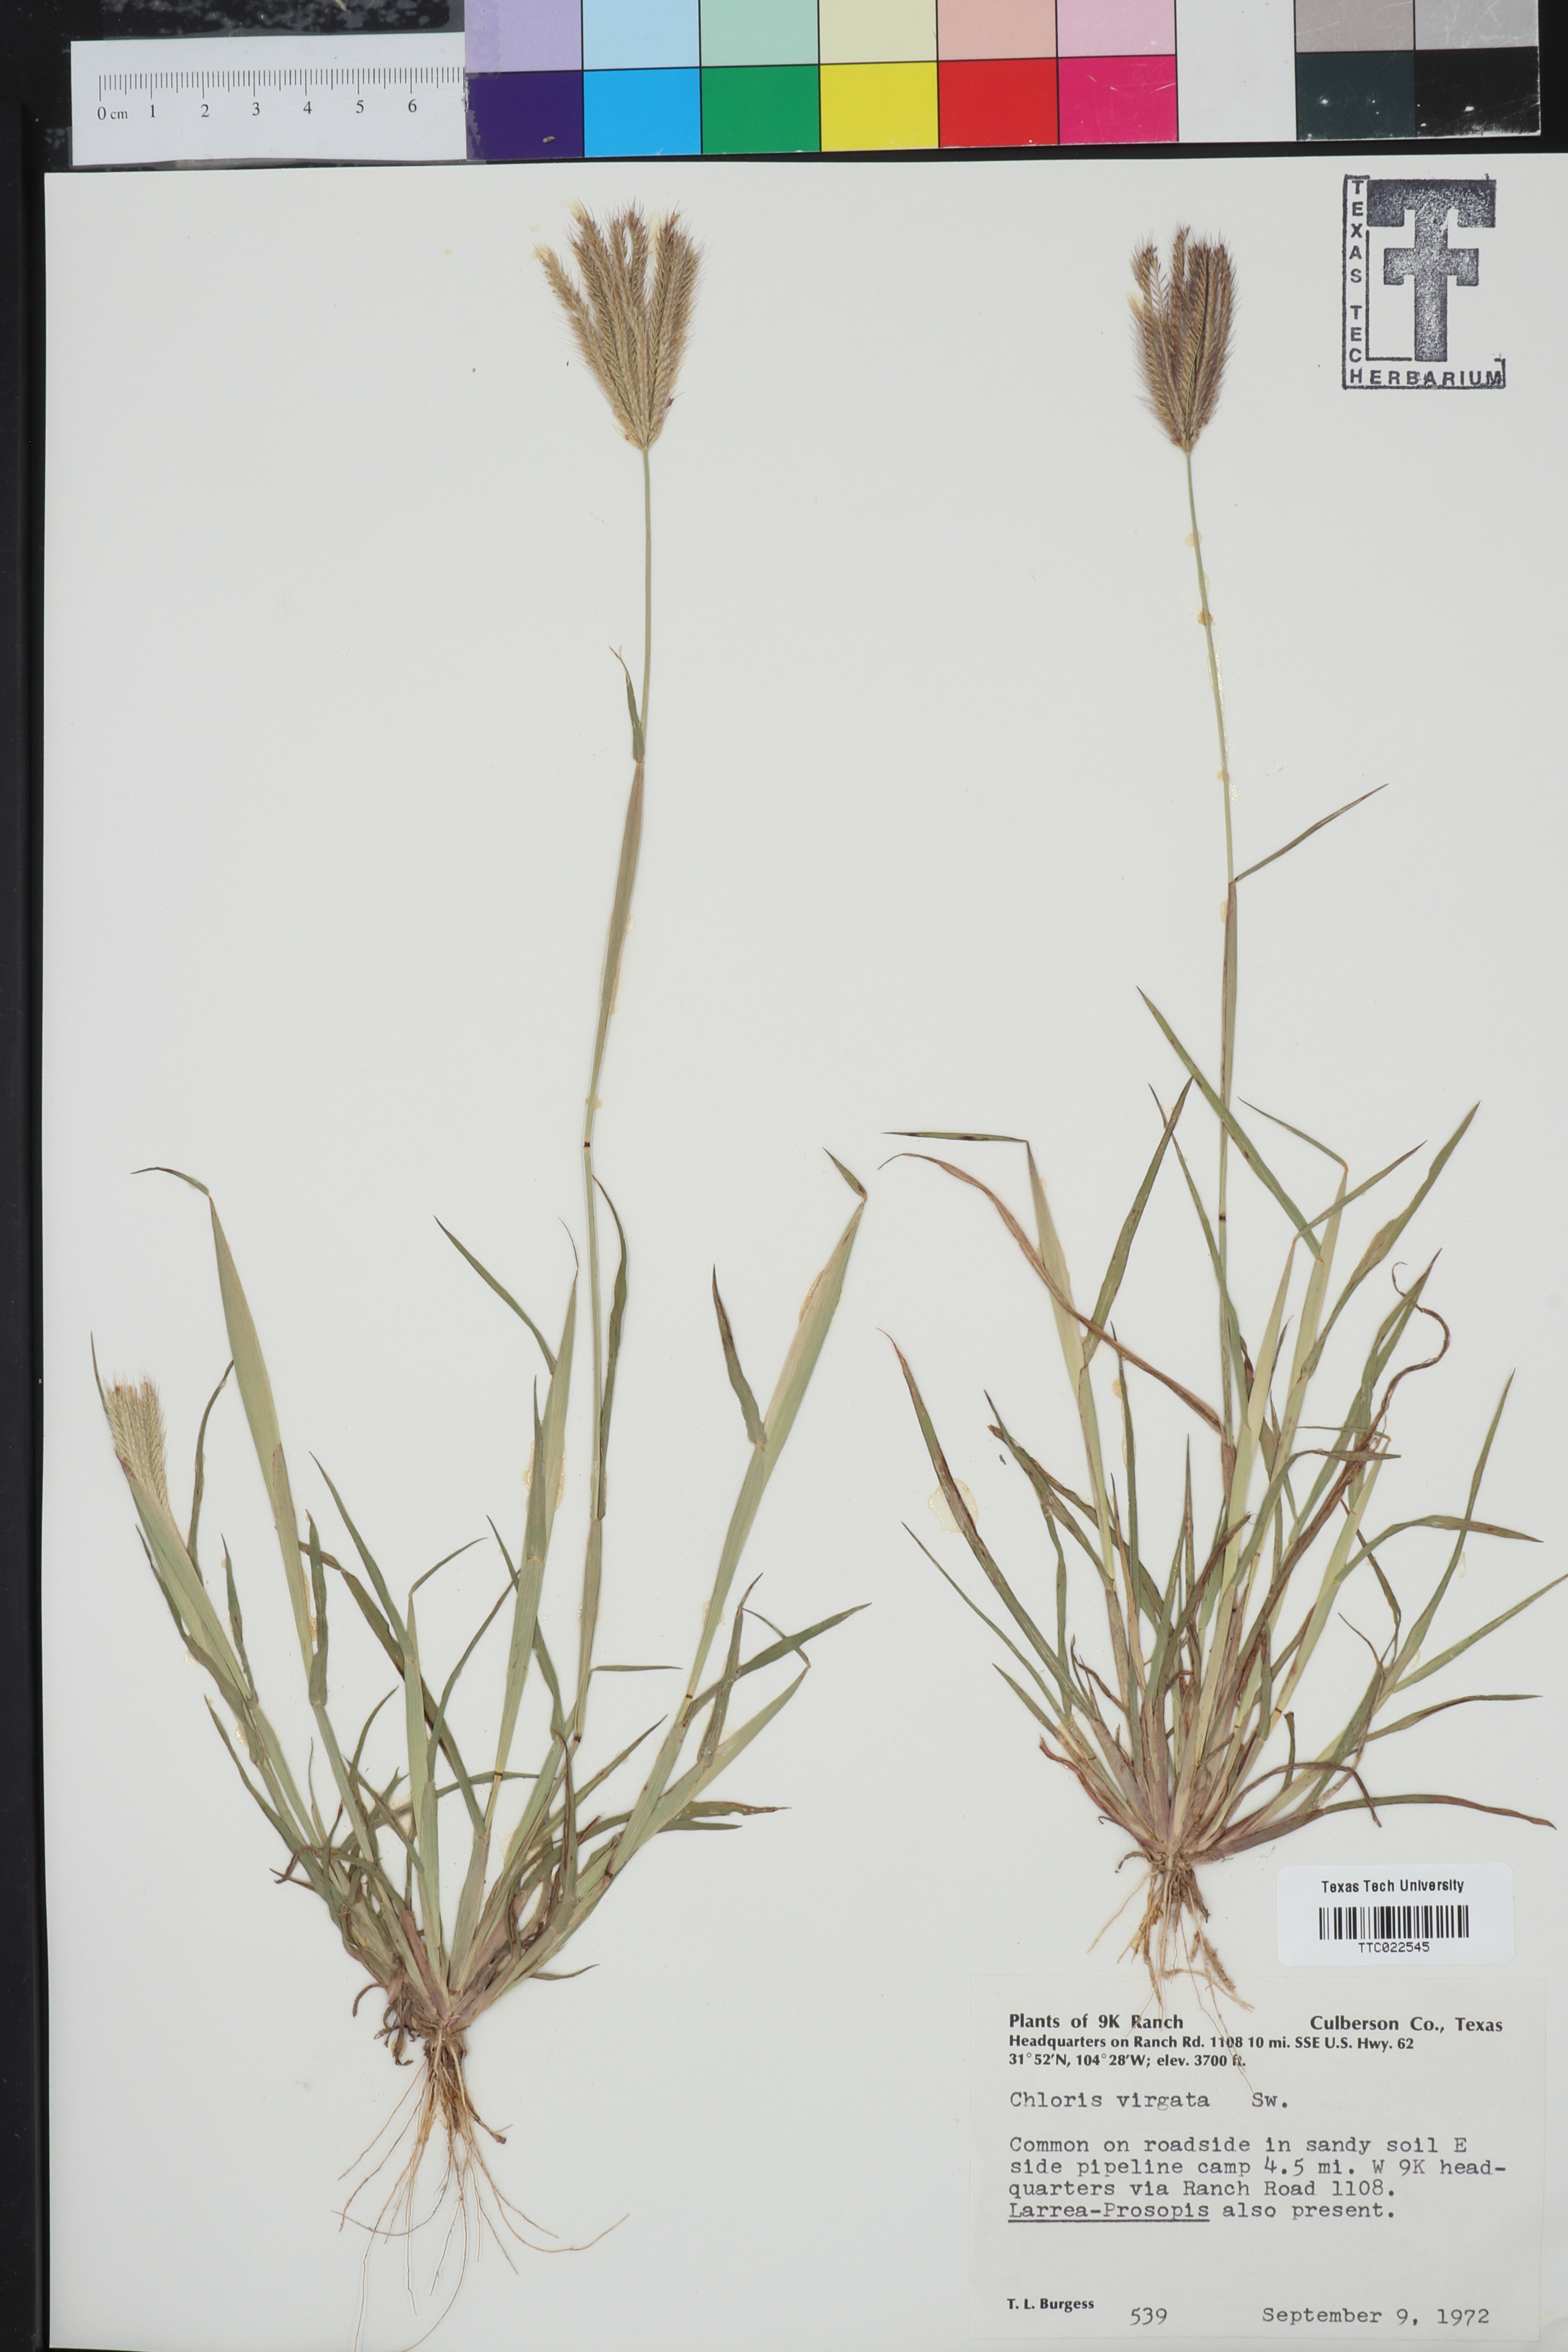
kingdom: Plantae
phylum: Tracheophyta
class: Liliopsida
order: Poales
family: Poaceae
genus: Chloris
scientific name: Chloris virgata
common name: Feathery rhodes-grass
